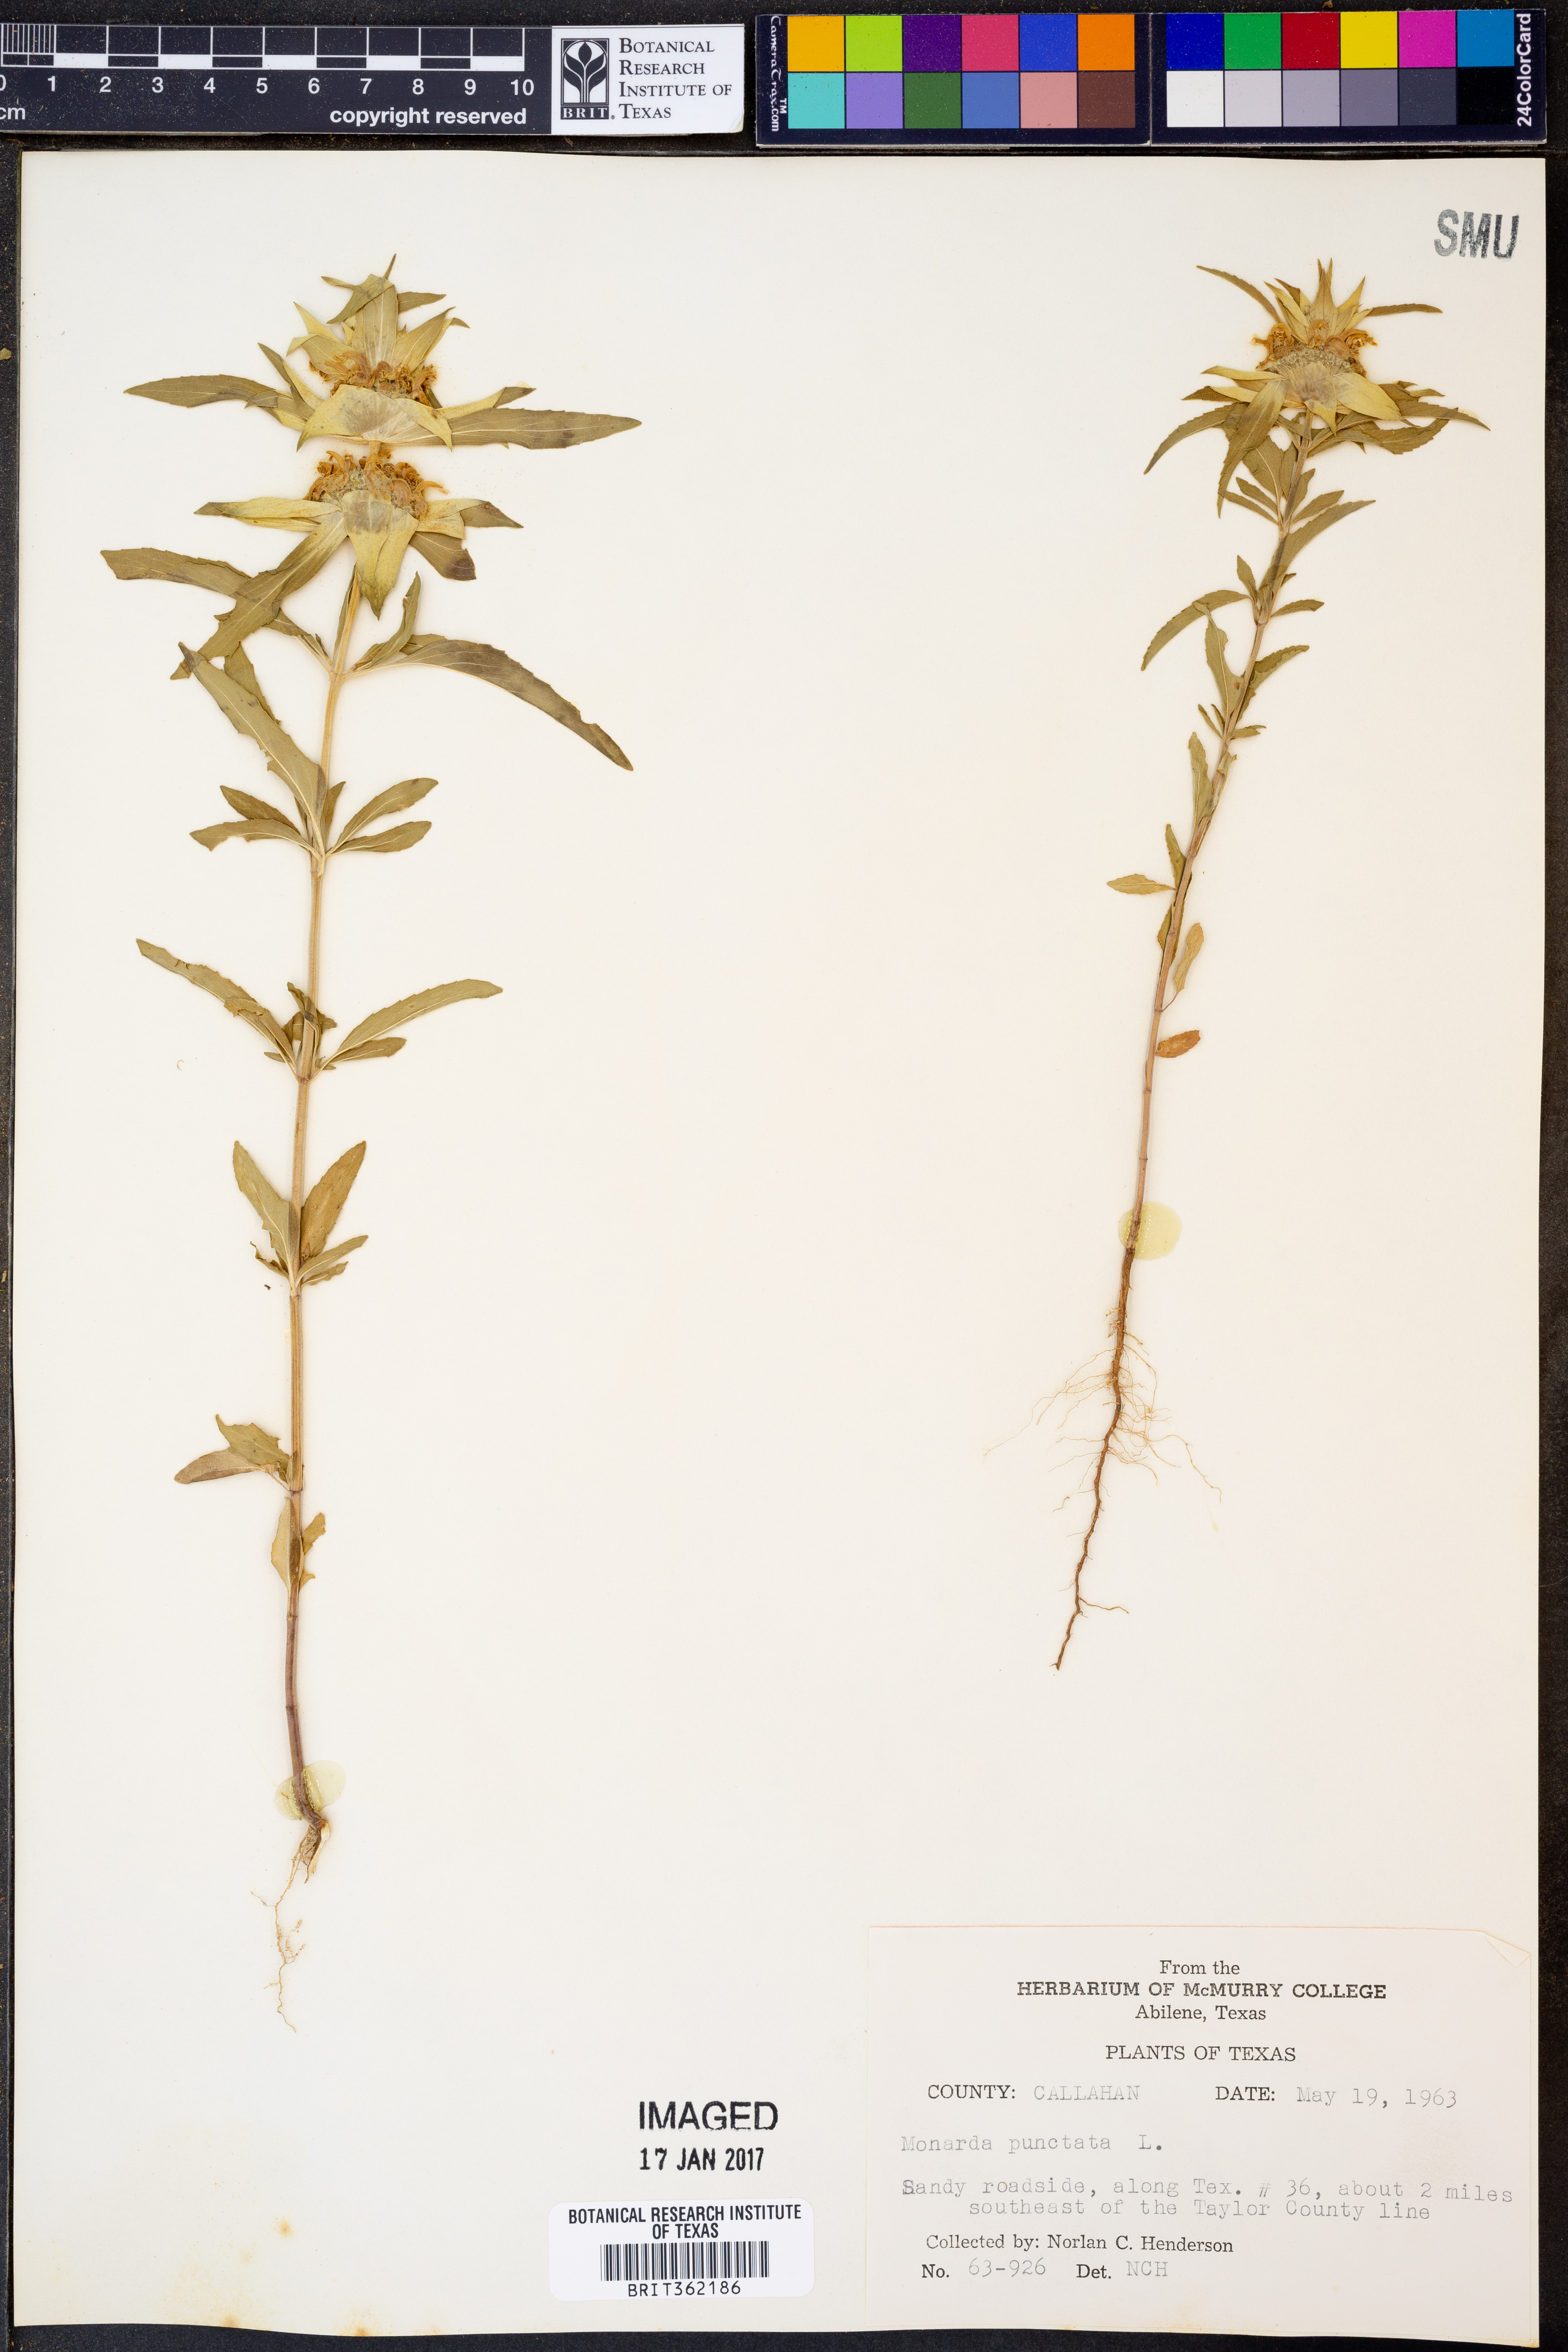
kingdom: Plantae
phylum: Tracheophyta
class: Magnoliopsida
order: Lamiales
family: Lamiaceae
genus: Monarda
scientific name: Monarda punctata
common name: Dotted monarda
